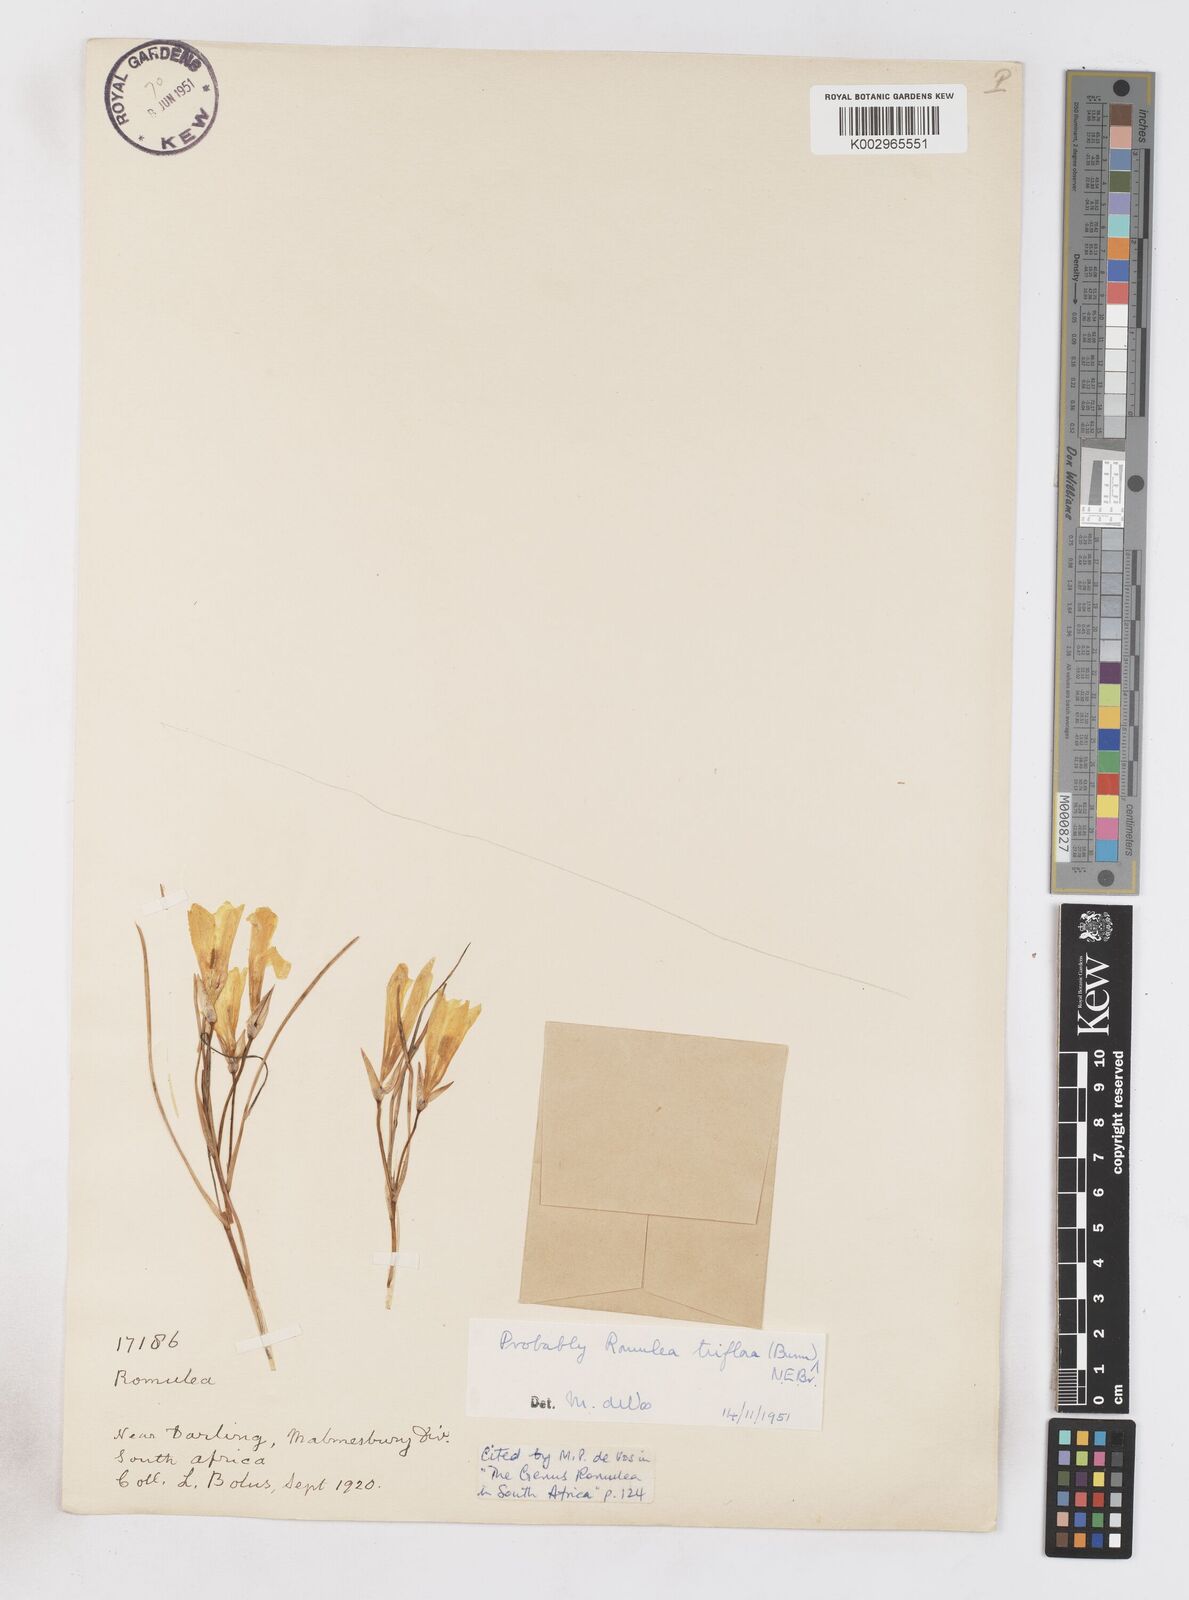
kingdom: Plantae
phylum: Tracheophyta
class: Liliopsida
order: Asparagales
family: Iridaceae
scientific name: Iridaceae
